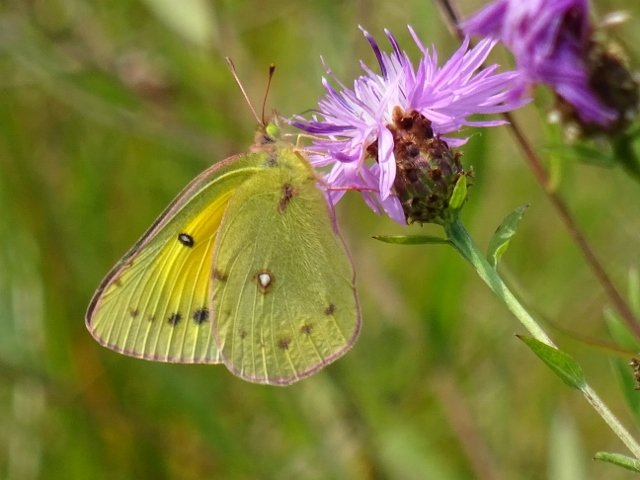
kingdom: Animalia
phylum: Arthropoda
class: Insecta
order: Lepidoptera
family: Pieridae
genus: Colias
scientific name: Colias eurytheme
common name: Orange Sulphur
